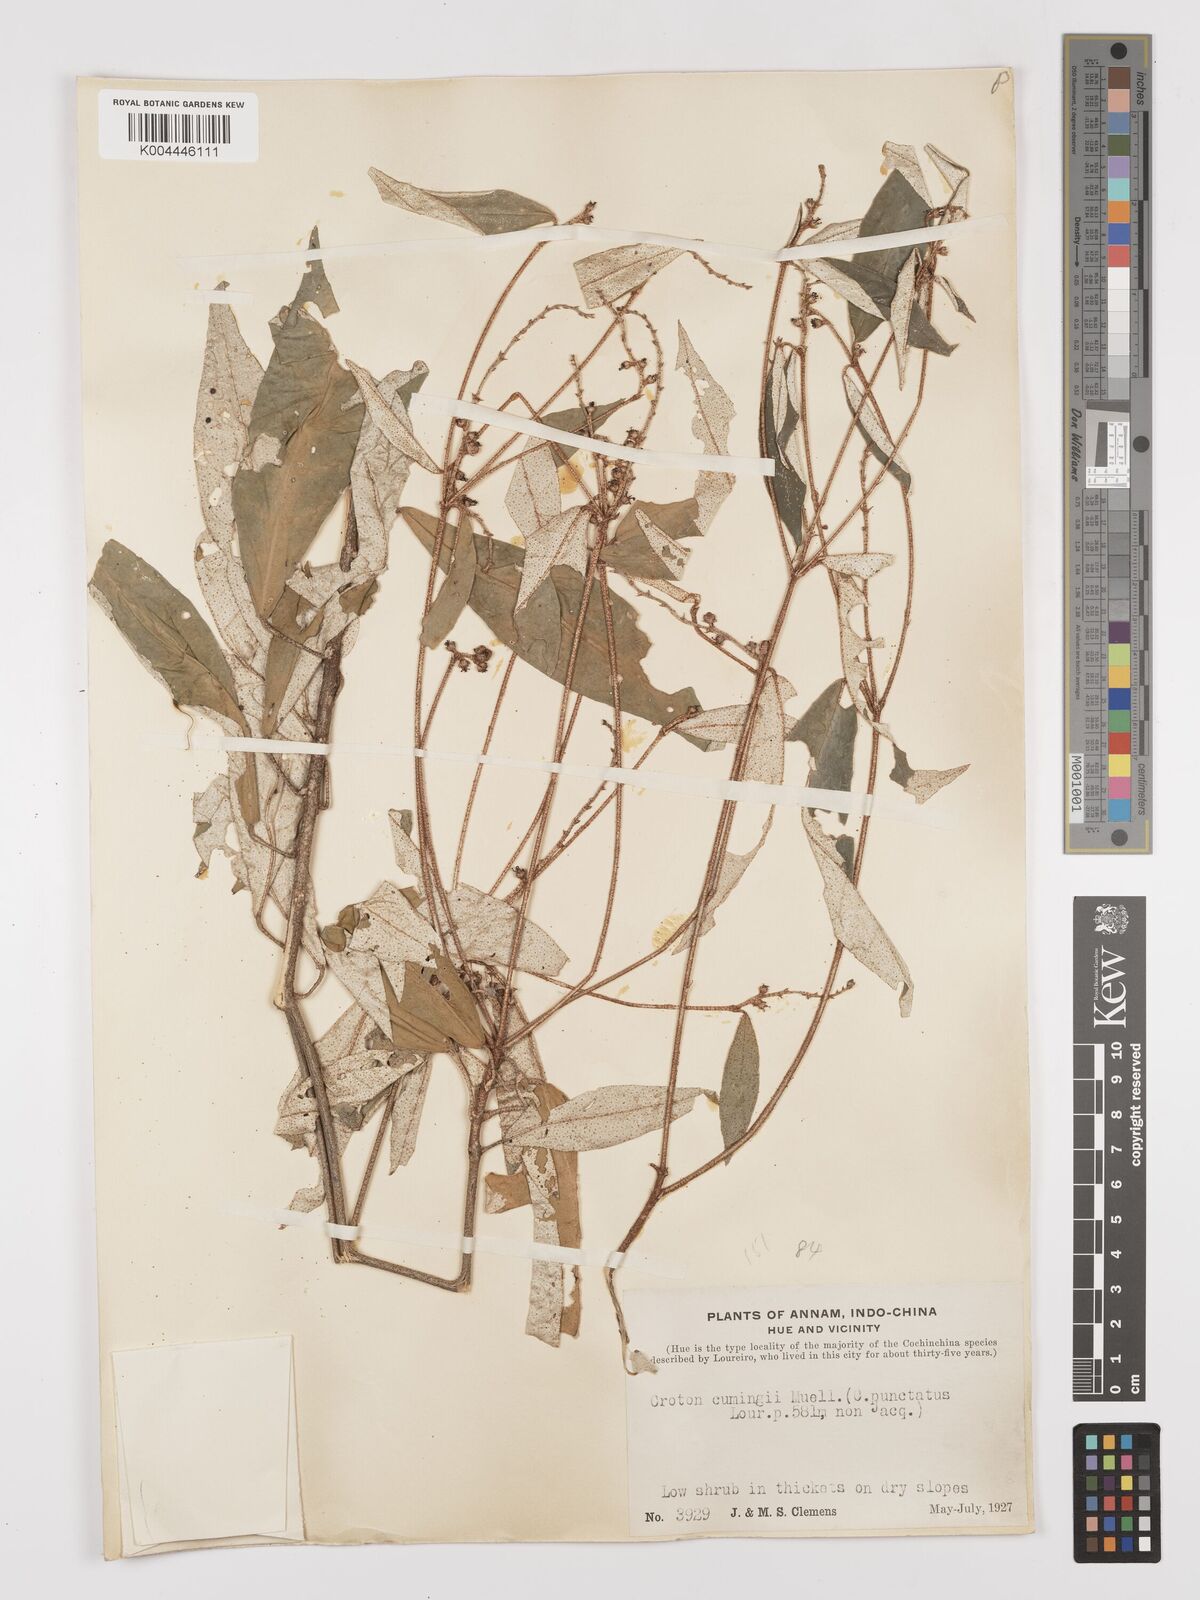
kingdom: Plantae
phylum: Tracheophyta
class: Magnoliopsida
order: Malpighiales
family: Euphorbiaceae
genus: Croton
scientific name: Croton cascarilloides
